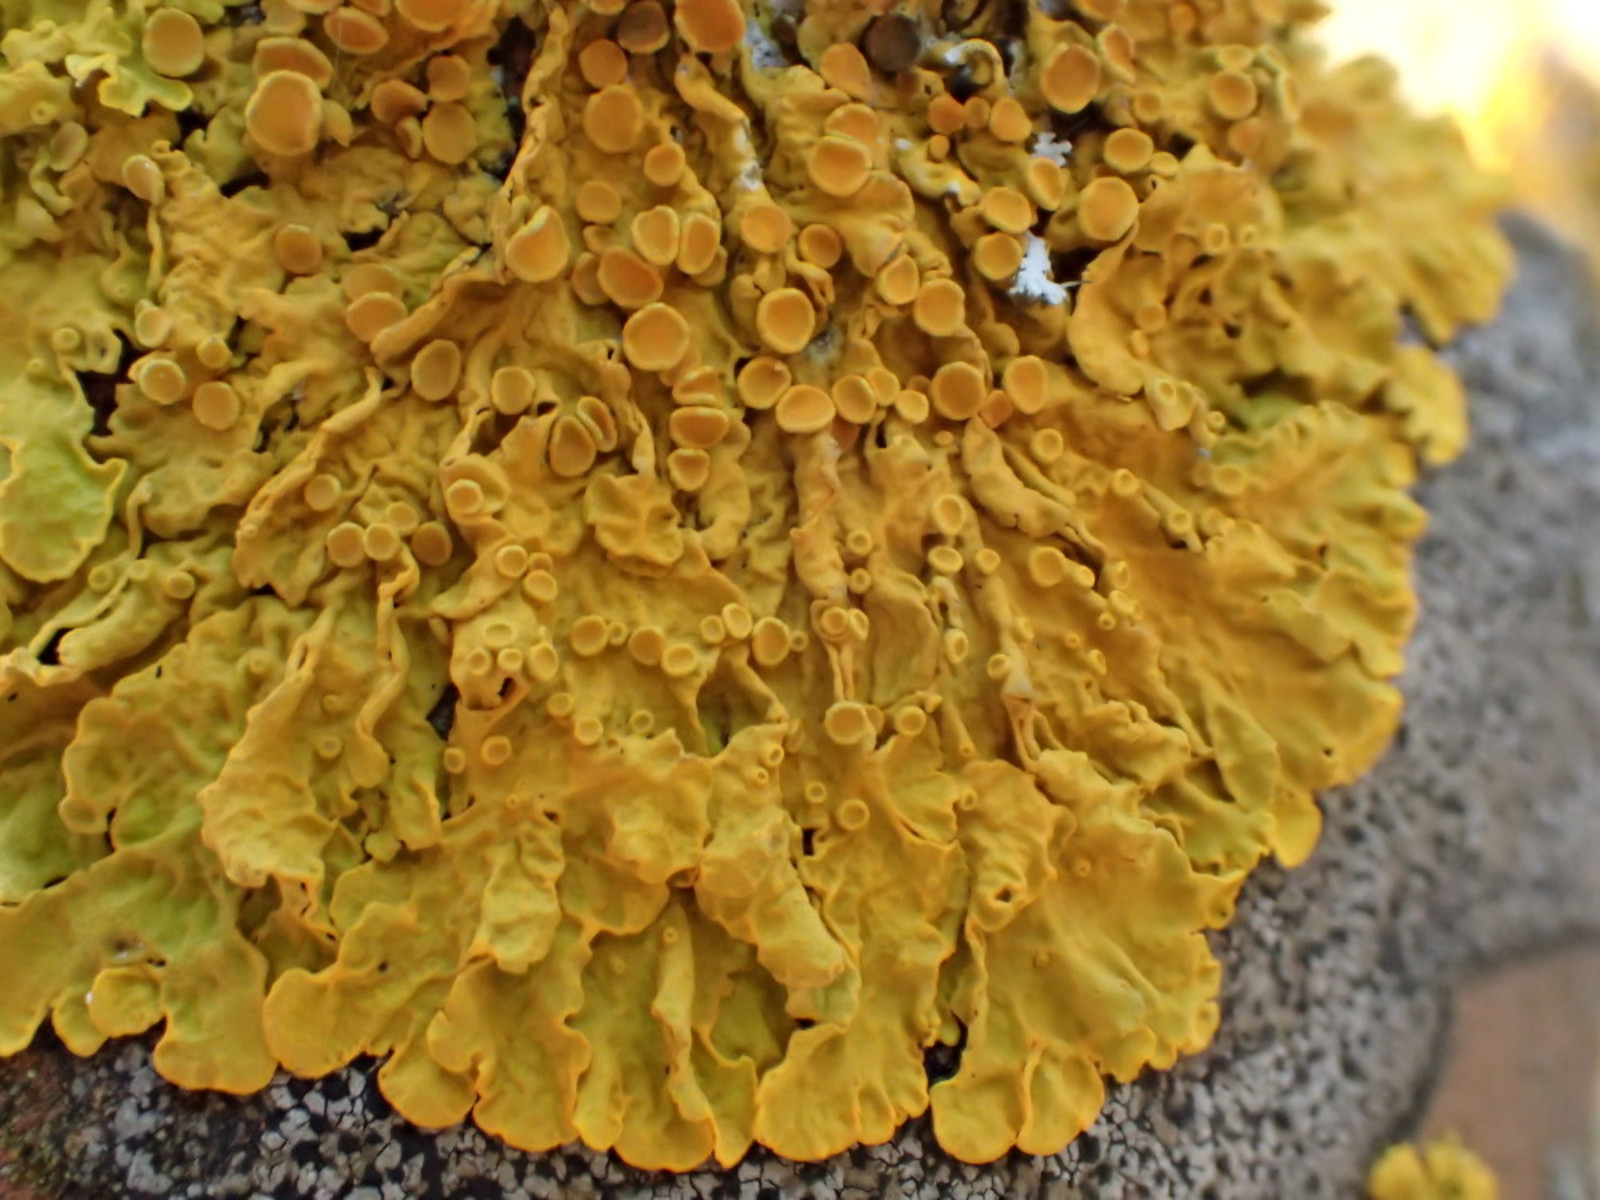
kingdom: Fungi
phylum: Ascomycota
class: Lecanoromycetes
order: Teloschistales
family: Teloschistaceae
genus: Xanthoria
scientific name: Xanthoria parietina
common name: almindelig væggelav
